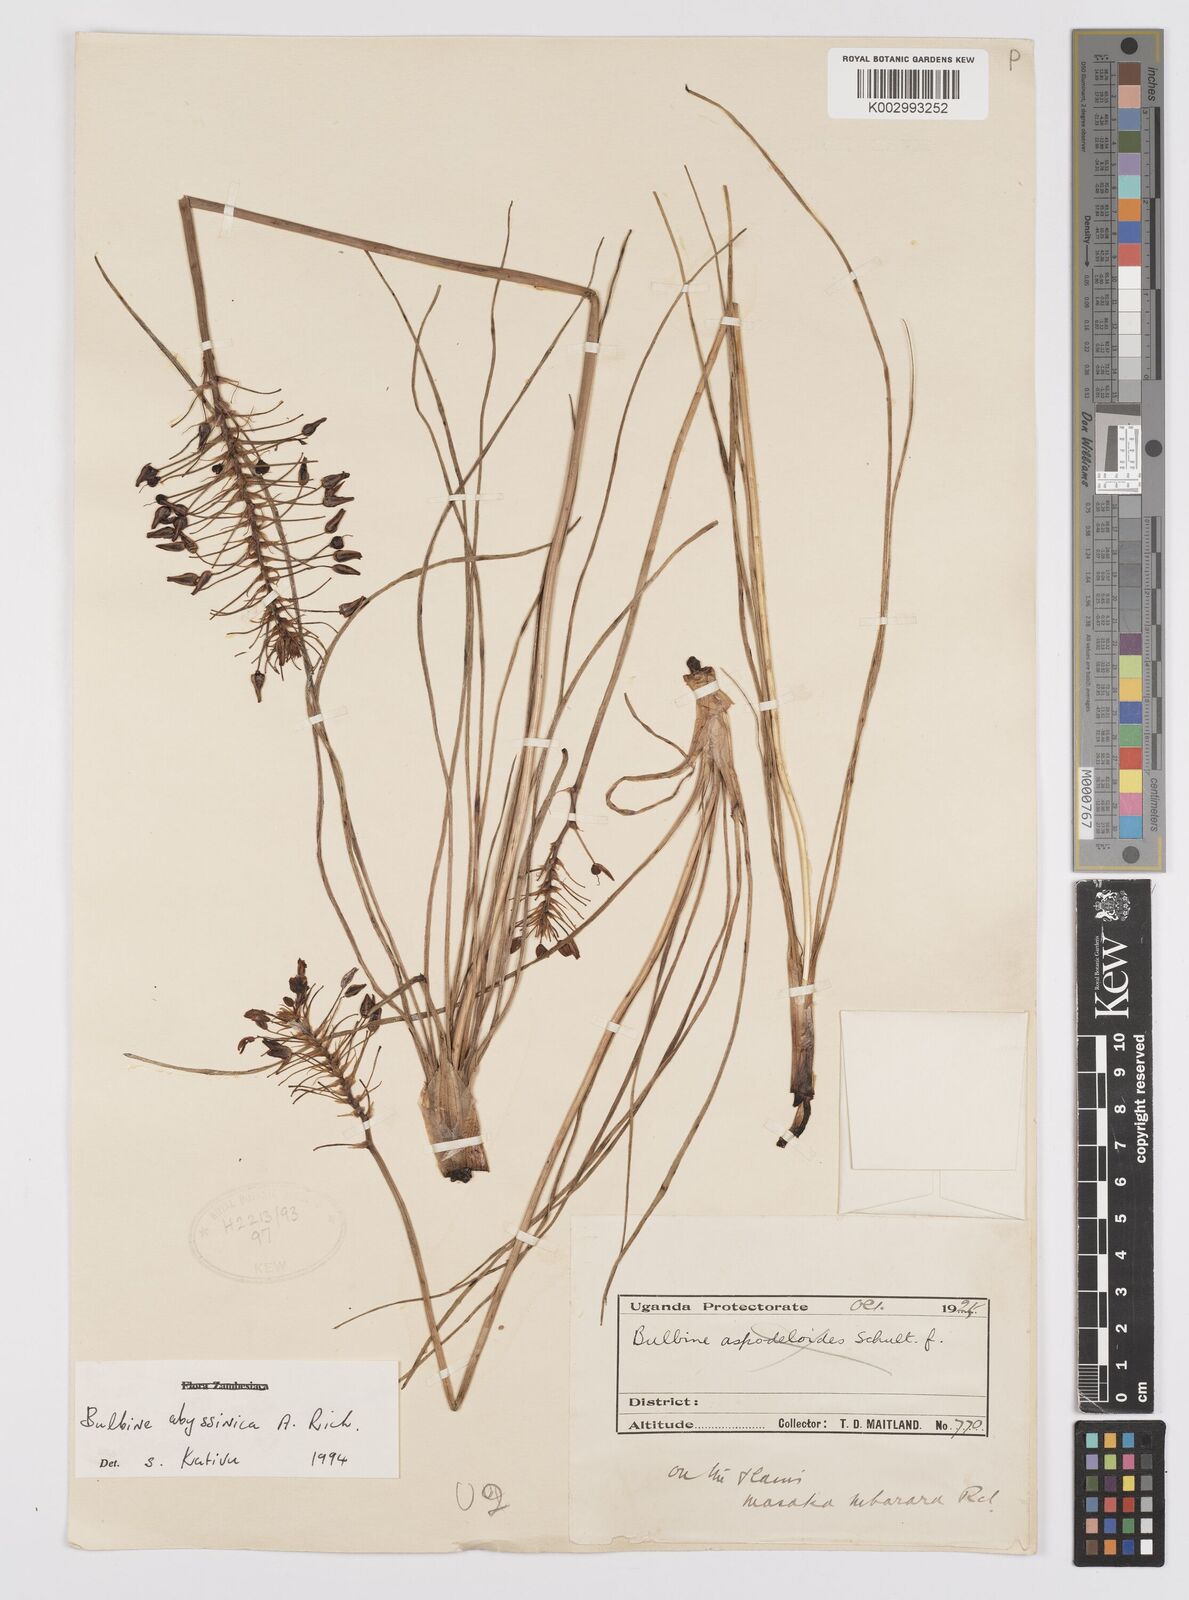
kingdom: Plantae
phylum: Tracheophyta
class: Liliopsida
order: Asparagales
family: Asphodelaceae
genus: Bulbine
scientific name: Bulbine abyssinica
